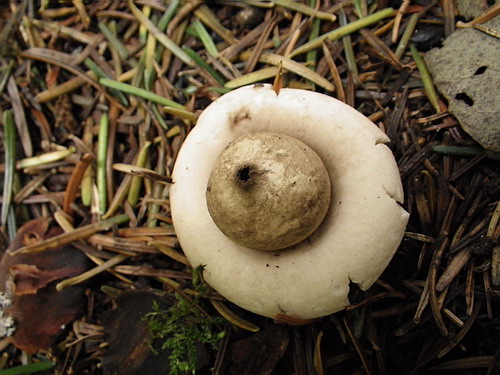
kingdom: Fungi
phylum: Basidiomycota
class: Agaricomycetes
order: Geastrales
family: Geastraceae
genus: Geastrum
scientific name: Geastrum fimbriatum
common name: frynset stjernebold
